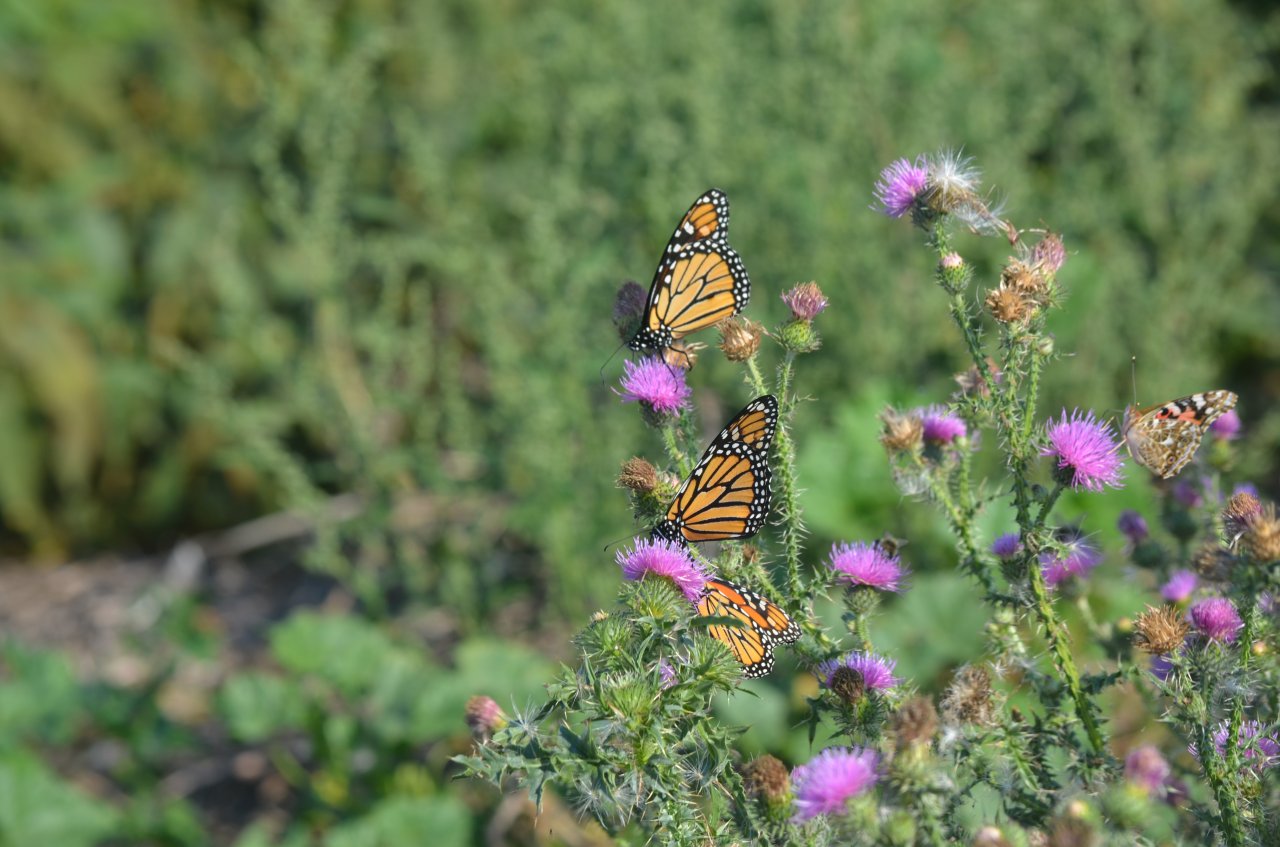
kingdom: Animalia
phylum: Arthropoda
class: Insecta
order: Lepidoptera
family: Nymphalidae
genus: Danaus
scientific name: Danaus plexippus
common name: Monarch
